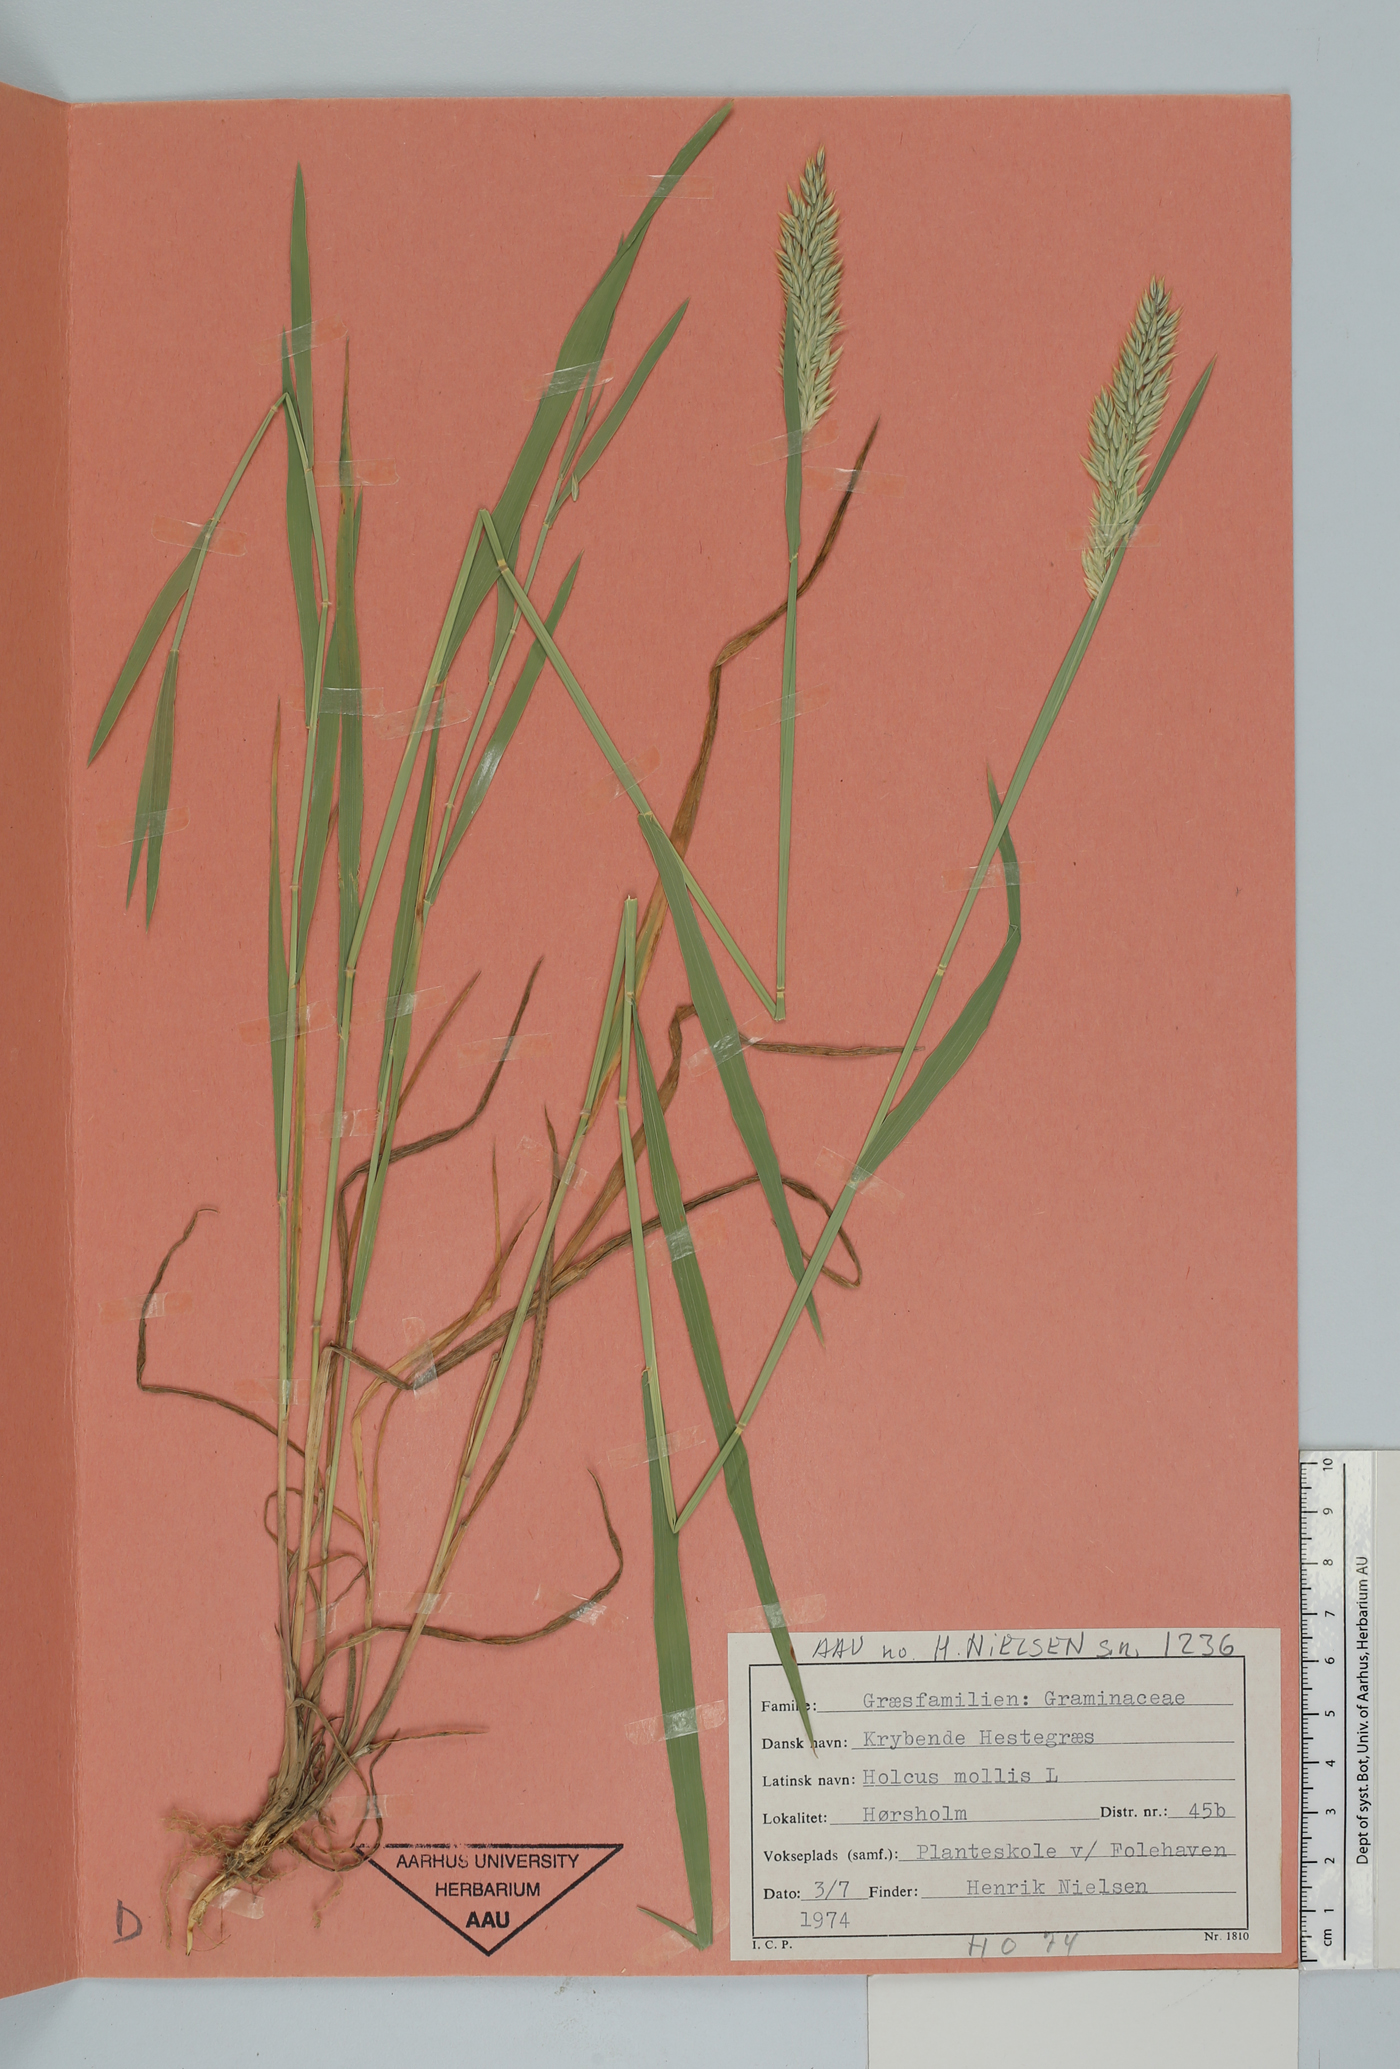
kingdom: Plantae
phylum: Tracheophyta
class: Liliopsida
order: Poales
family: Poaceae
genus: Holcus
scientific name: Holcus mollis
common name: Creeping velvetgrass
